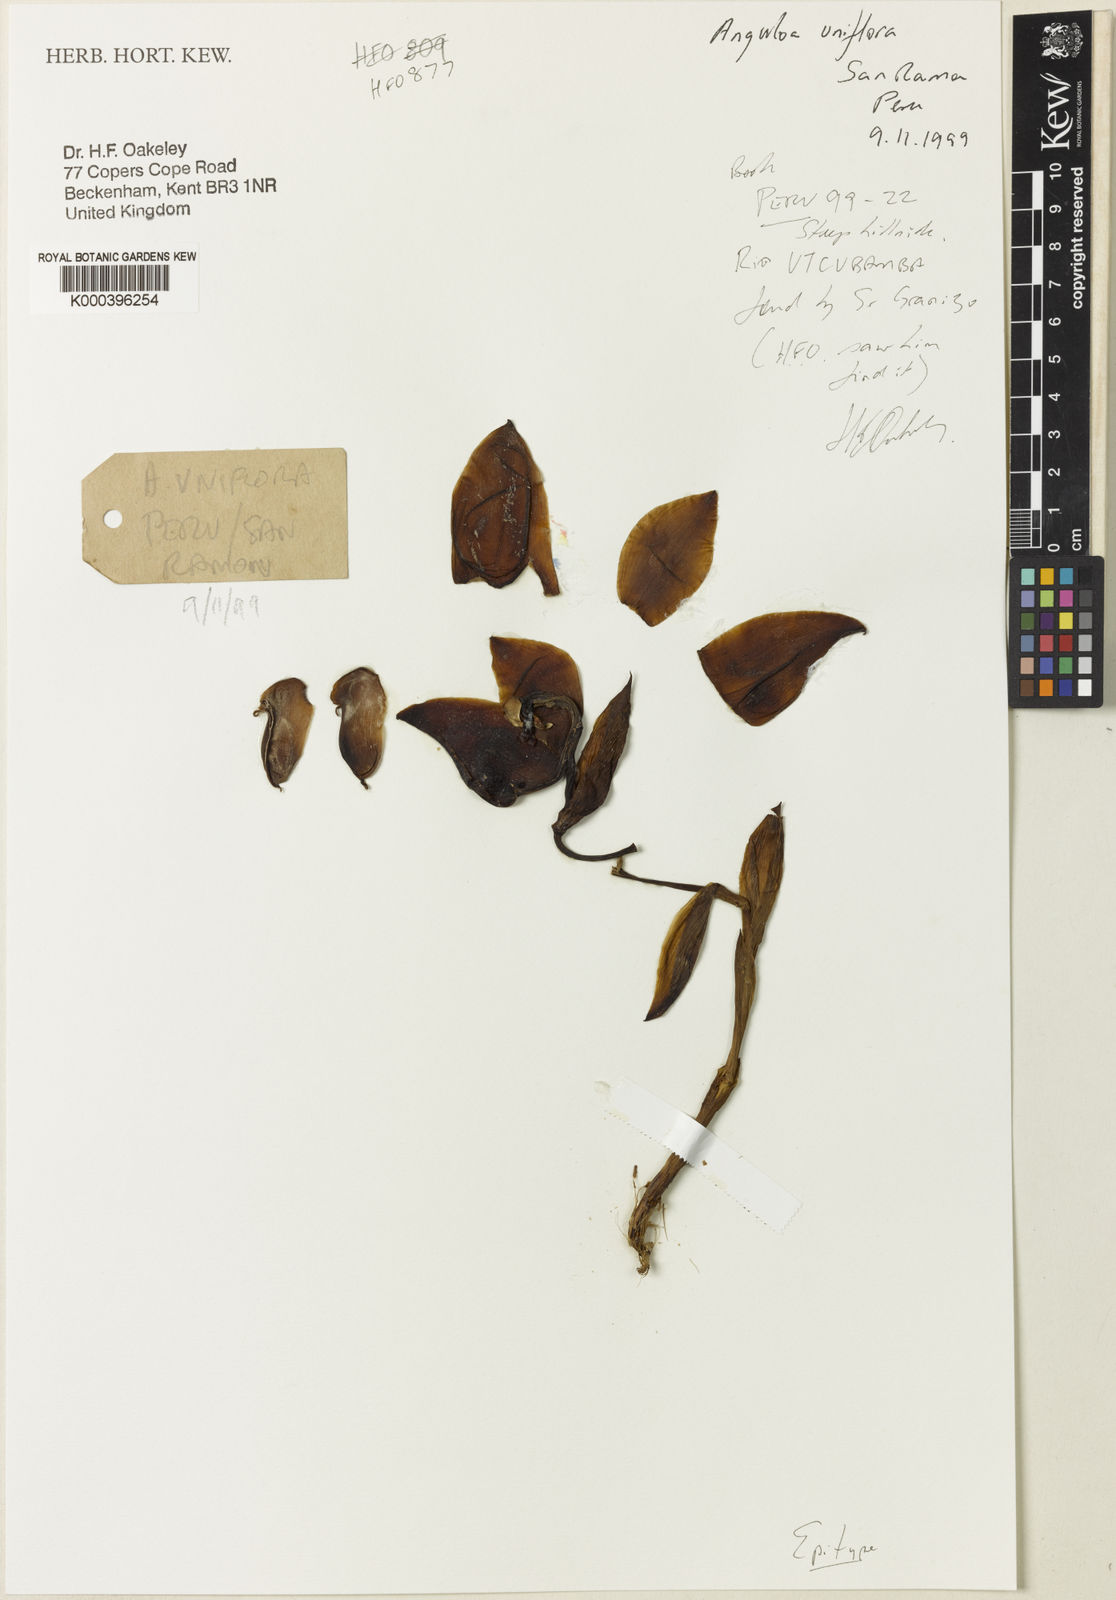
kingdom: Plantae
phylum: Tracheophyta
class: Liliopsida
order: Asparagales
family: Orchidaceae
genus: Anguloa
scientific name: Anguloa uniflora
